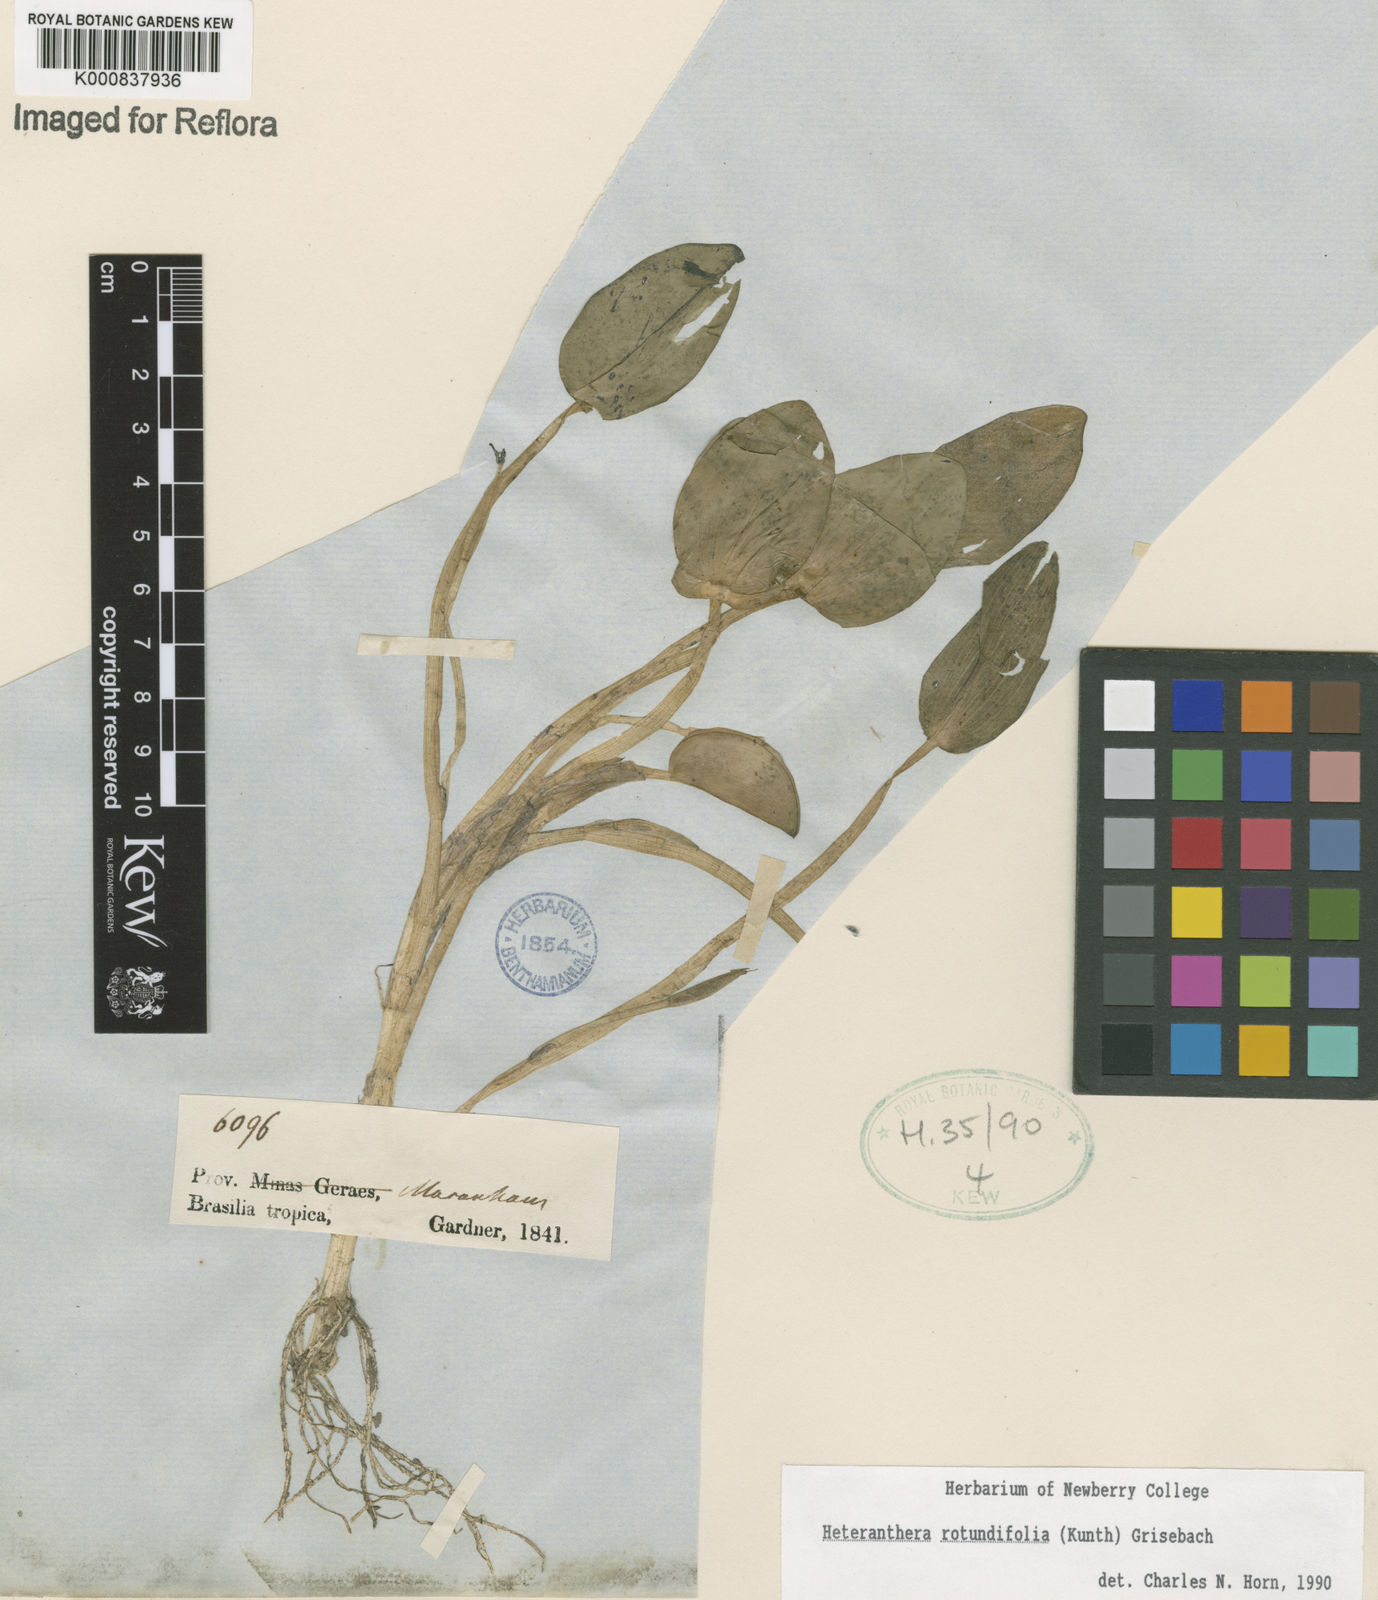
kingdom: Plantae
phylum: Tracheophyta
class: Liliopsida
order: Commelinales
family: Pontederiaceae
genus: Heteranthera
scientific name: Heteranthera rotundifolia
